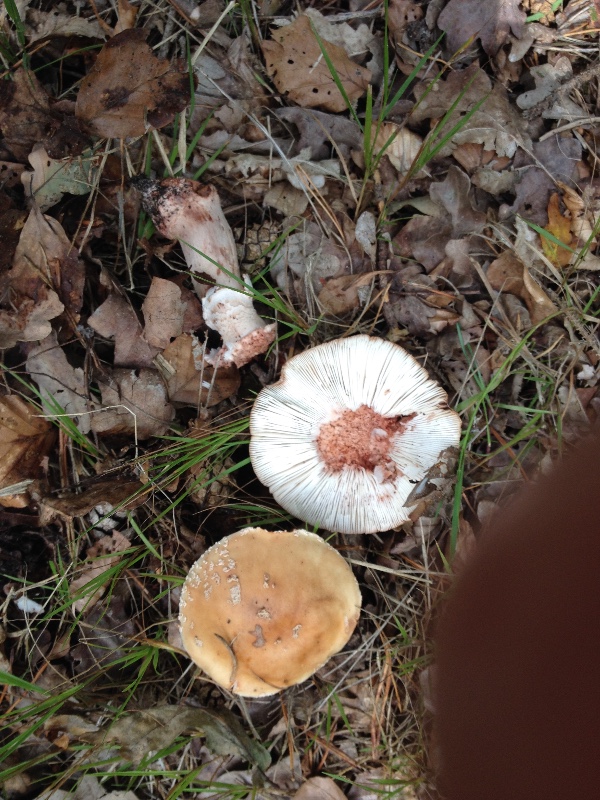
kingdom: Fungi
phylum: Basidiomycota
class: Agaricomycetes
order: Agaricales
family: Amanitaceae
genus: Amanita
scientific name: Amanita rubescens
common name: rødmende fluesvamp
